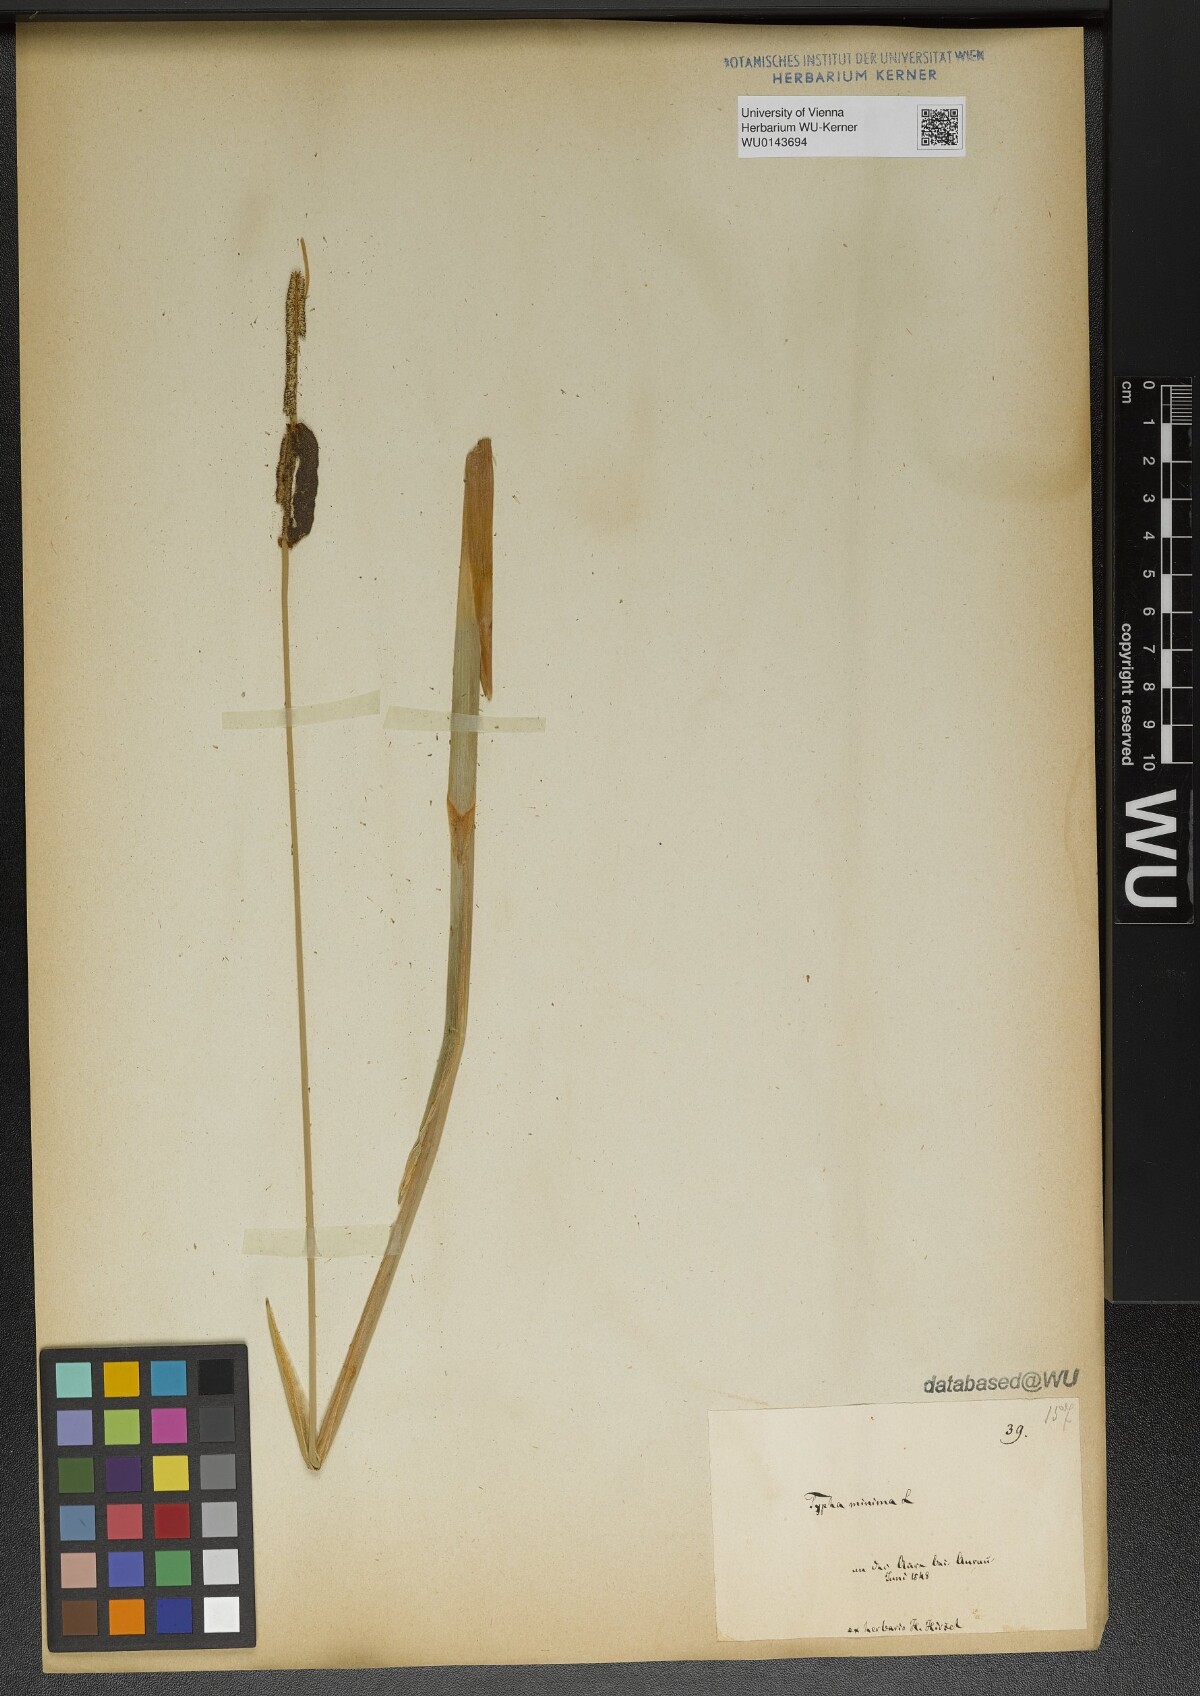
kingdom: Plantae
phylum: Tracheophyta
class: Liliopsida
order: Poales
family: Typhaceae
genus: Typha
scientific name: Typha minima
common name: Dwarf bulrush
